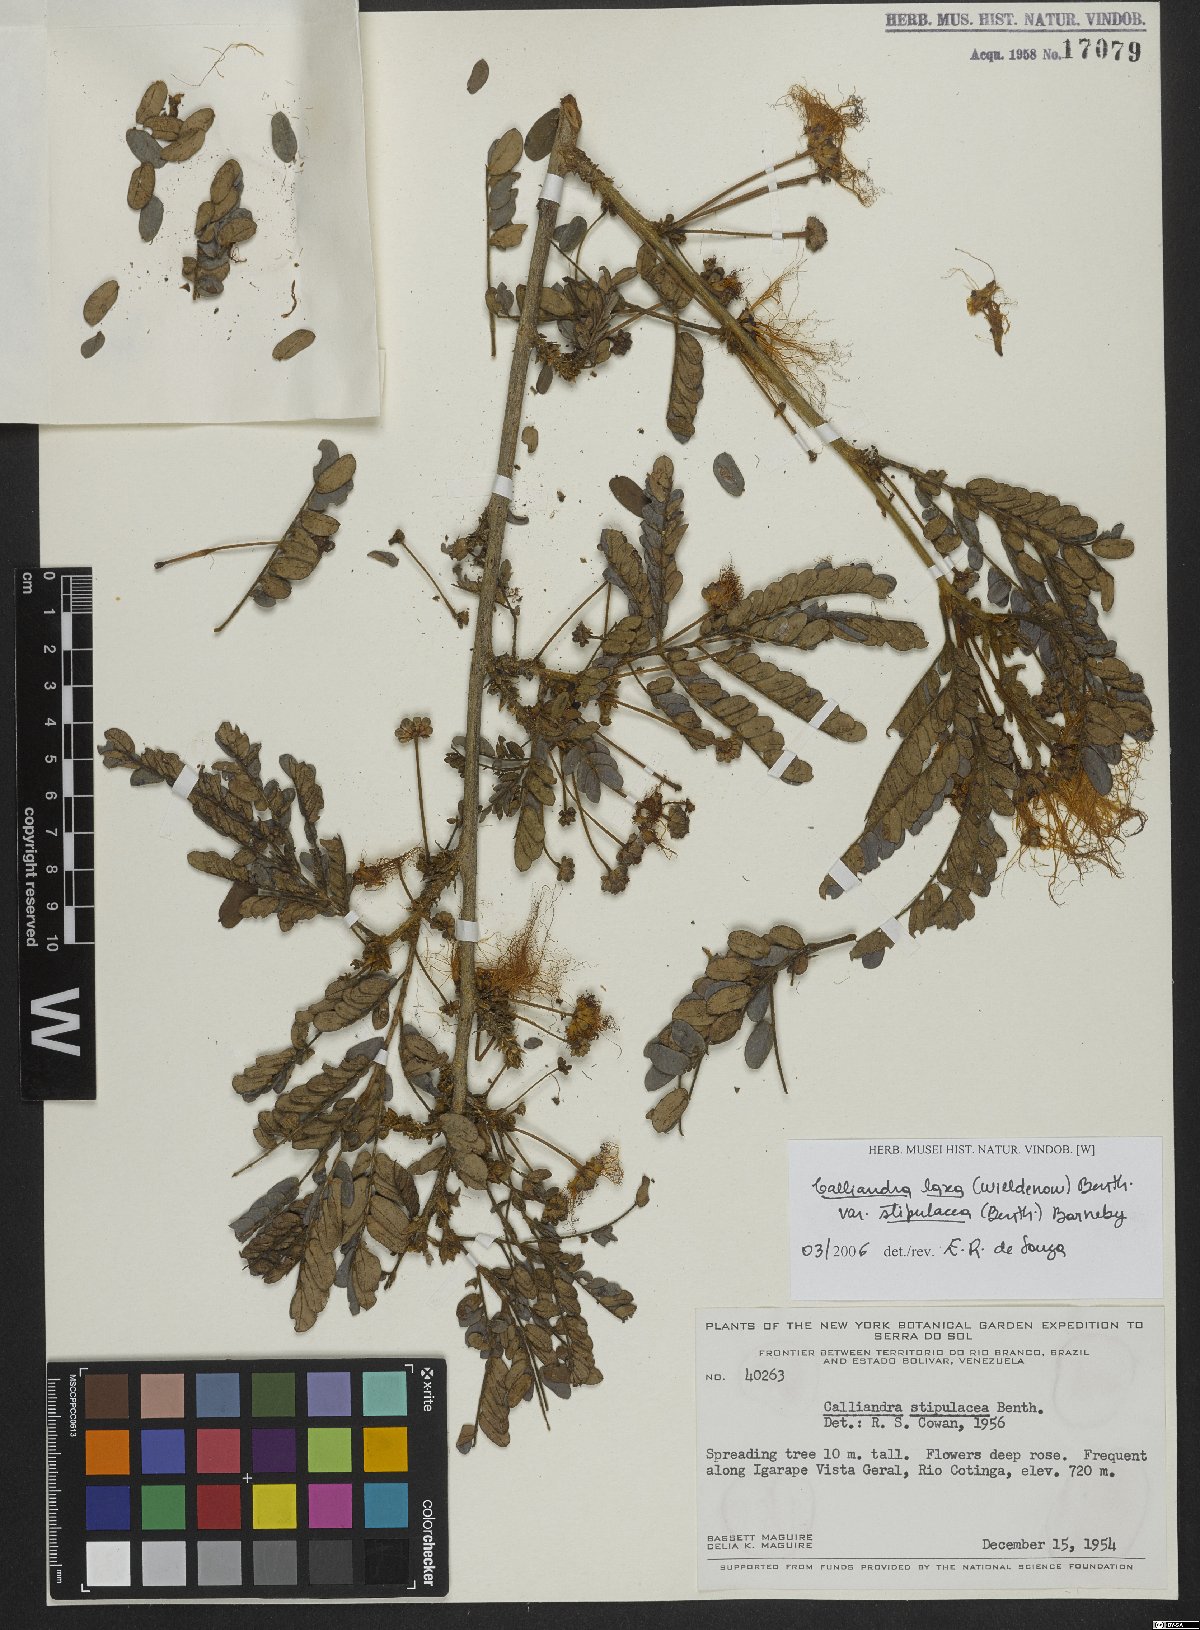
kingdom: Plantae
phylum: Tracheophyta
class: Magnoliopsida
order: Fabales
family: Fabaceae
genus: Calliandra
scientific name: Calliandra laxa
